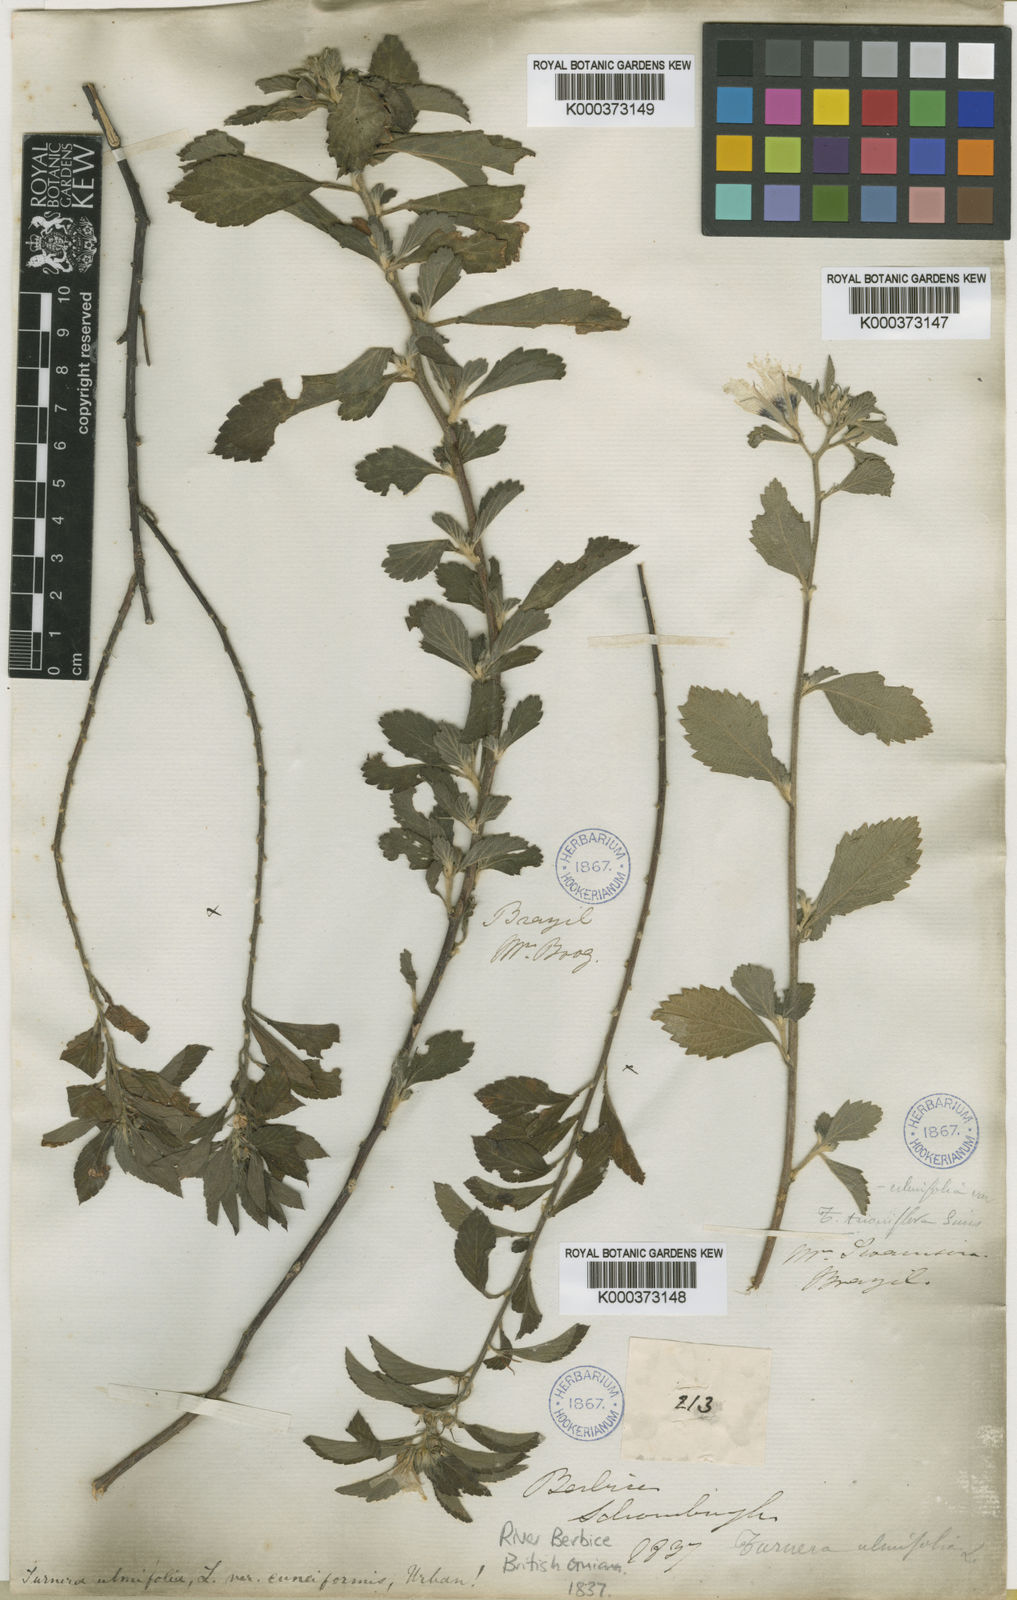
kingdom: Plantae
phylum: Tracheophyta
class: Magnoliopsida
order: Malpighiales
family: Turneraceae
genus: Turnera
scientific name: Turnera scabra
